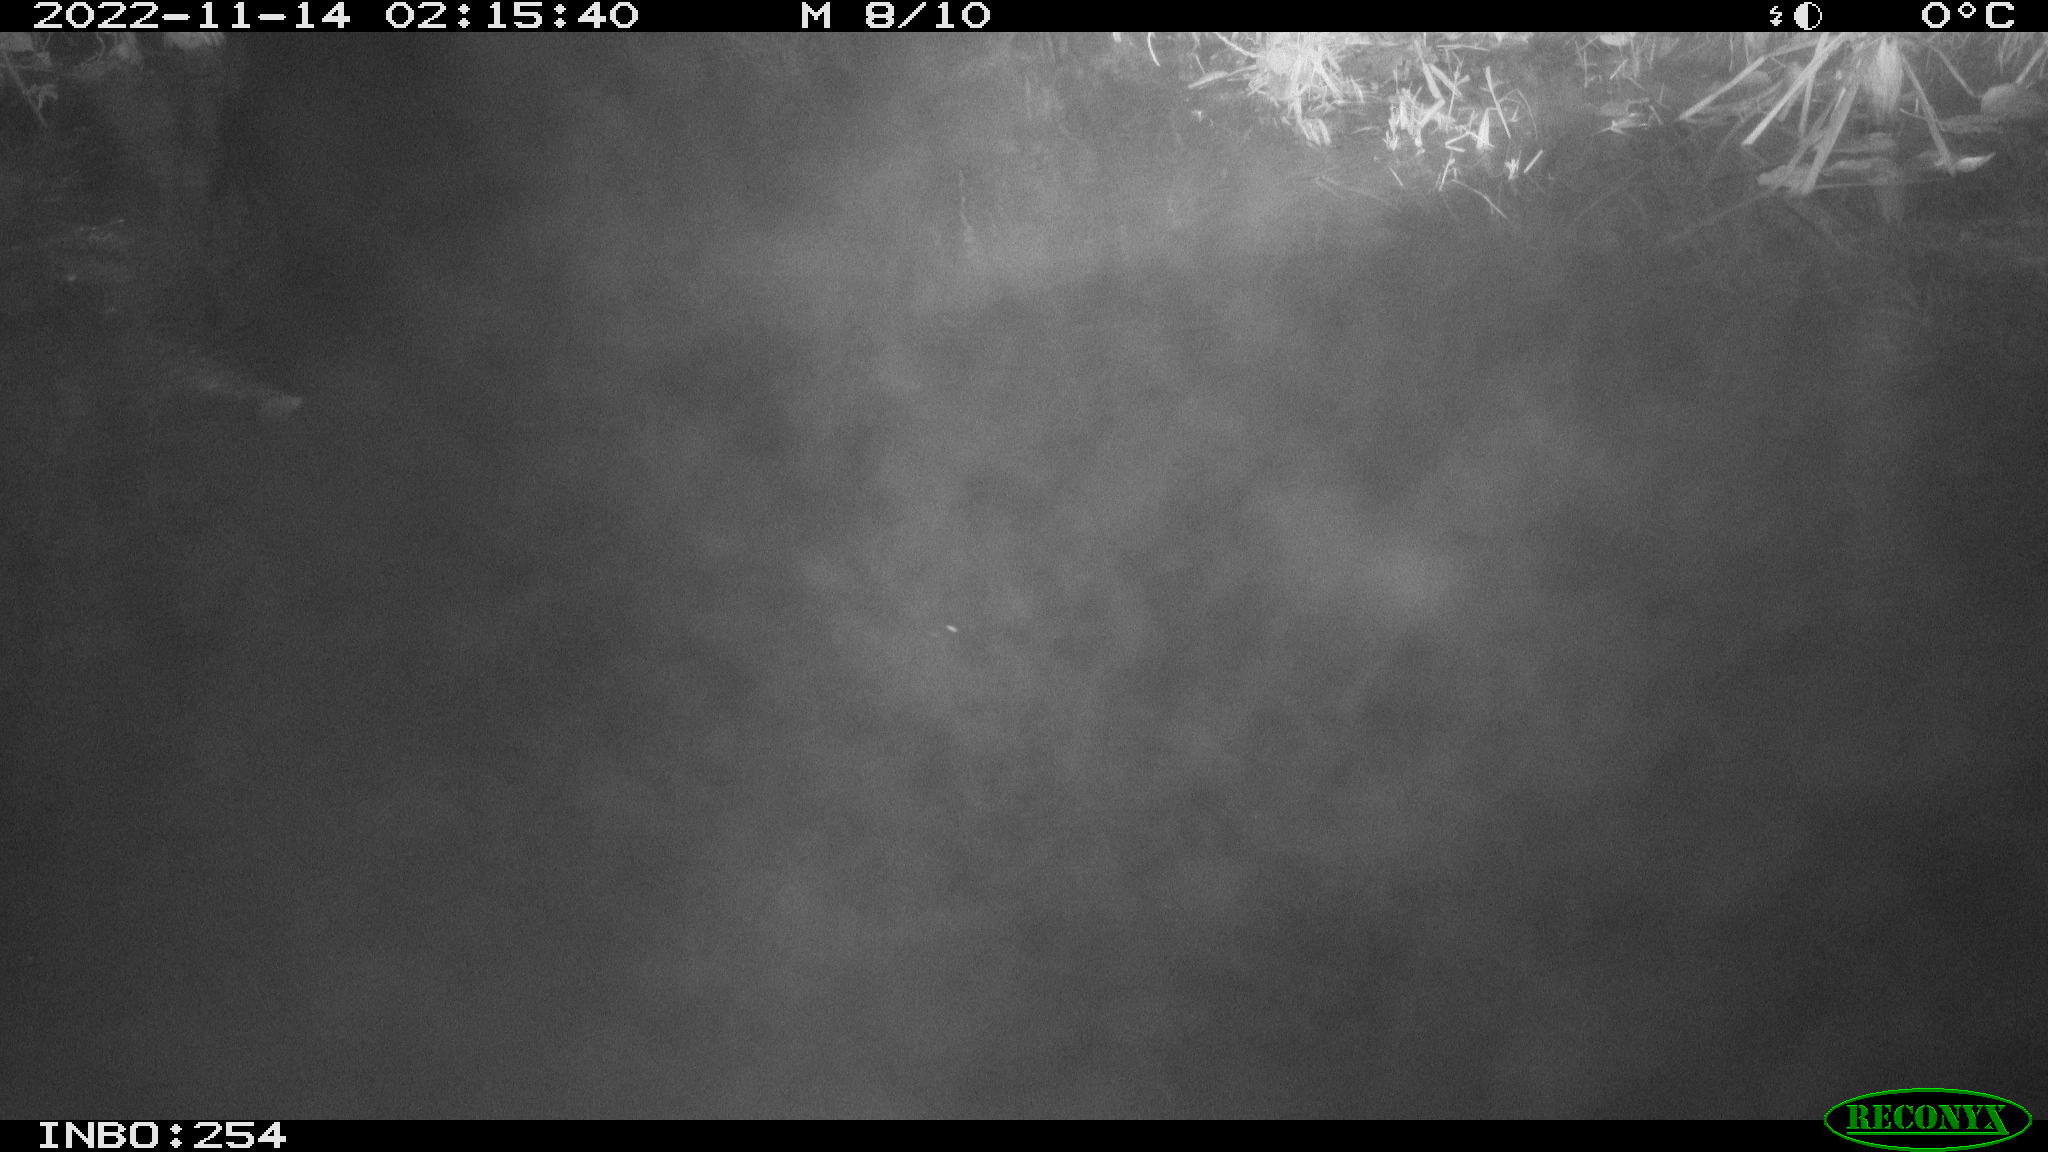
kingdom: Animalia
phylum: Chordata
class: Aves
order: Anseriformes
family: Anatidae
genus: Anas
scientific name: Anas
